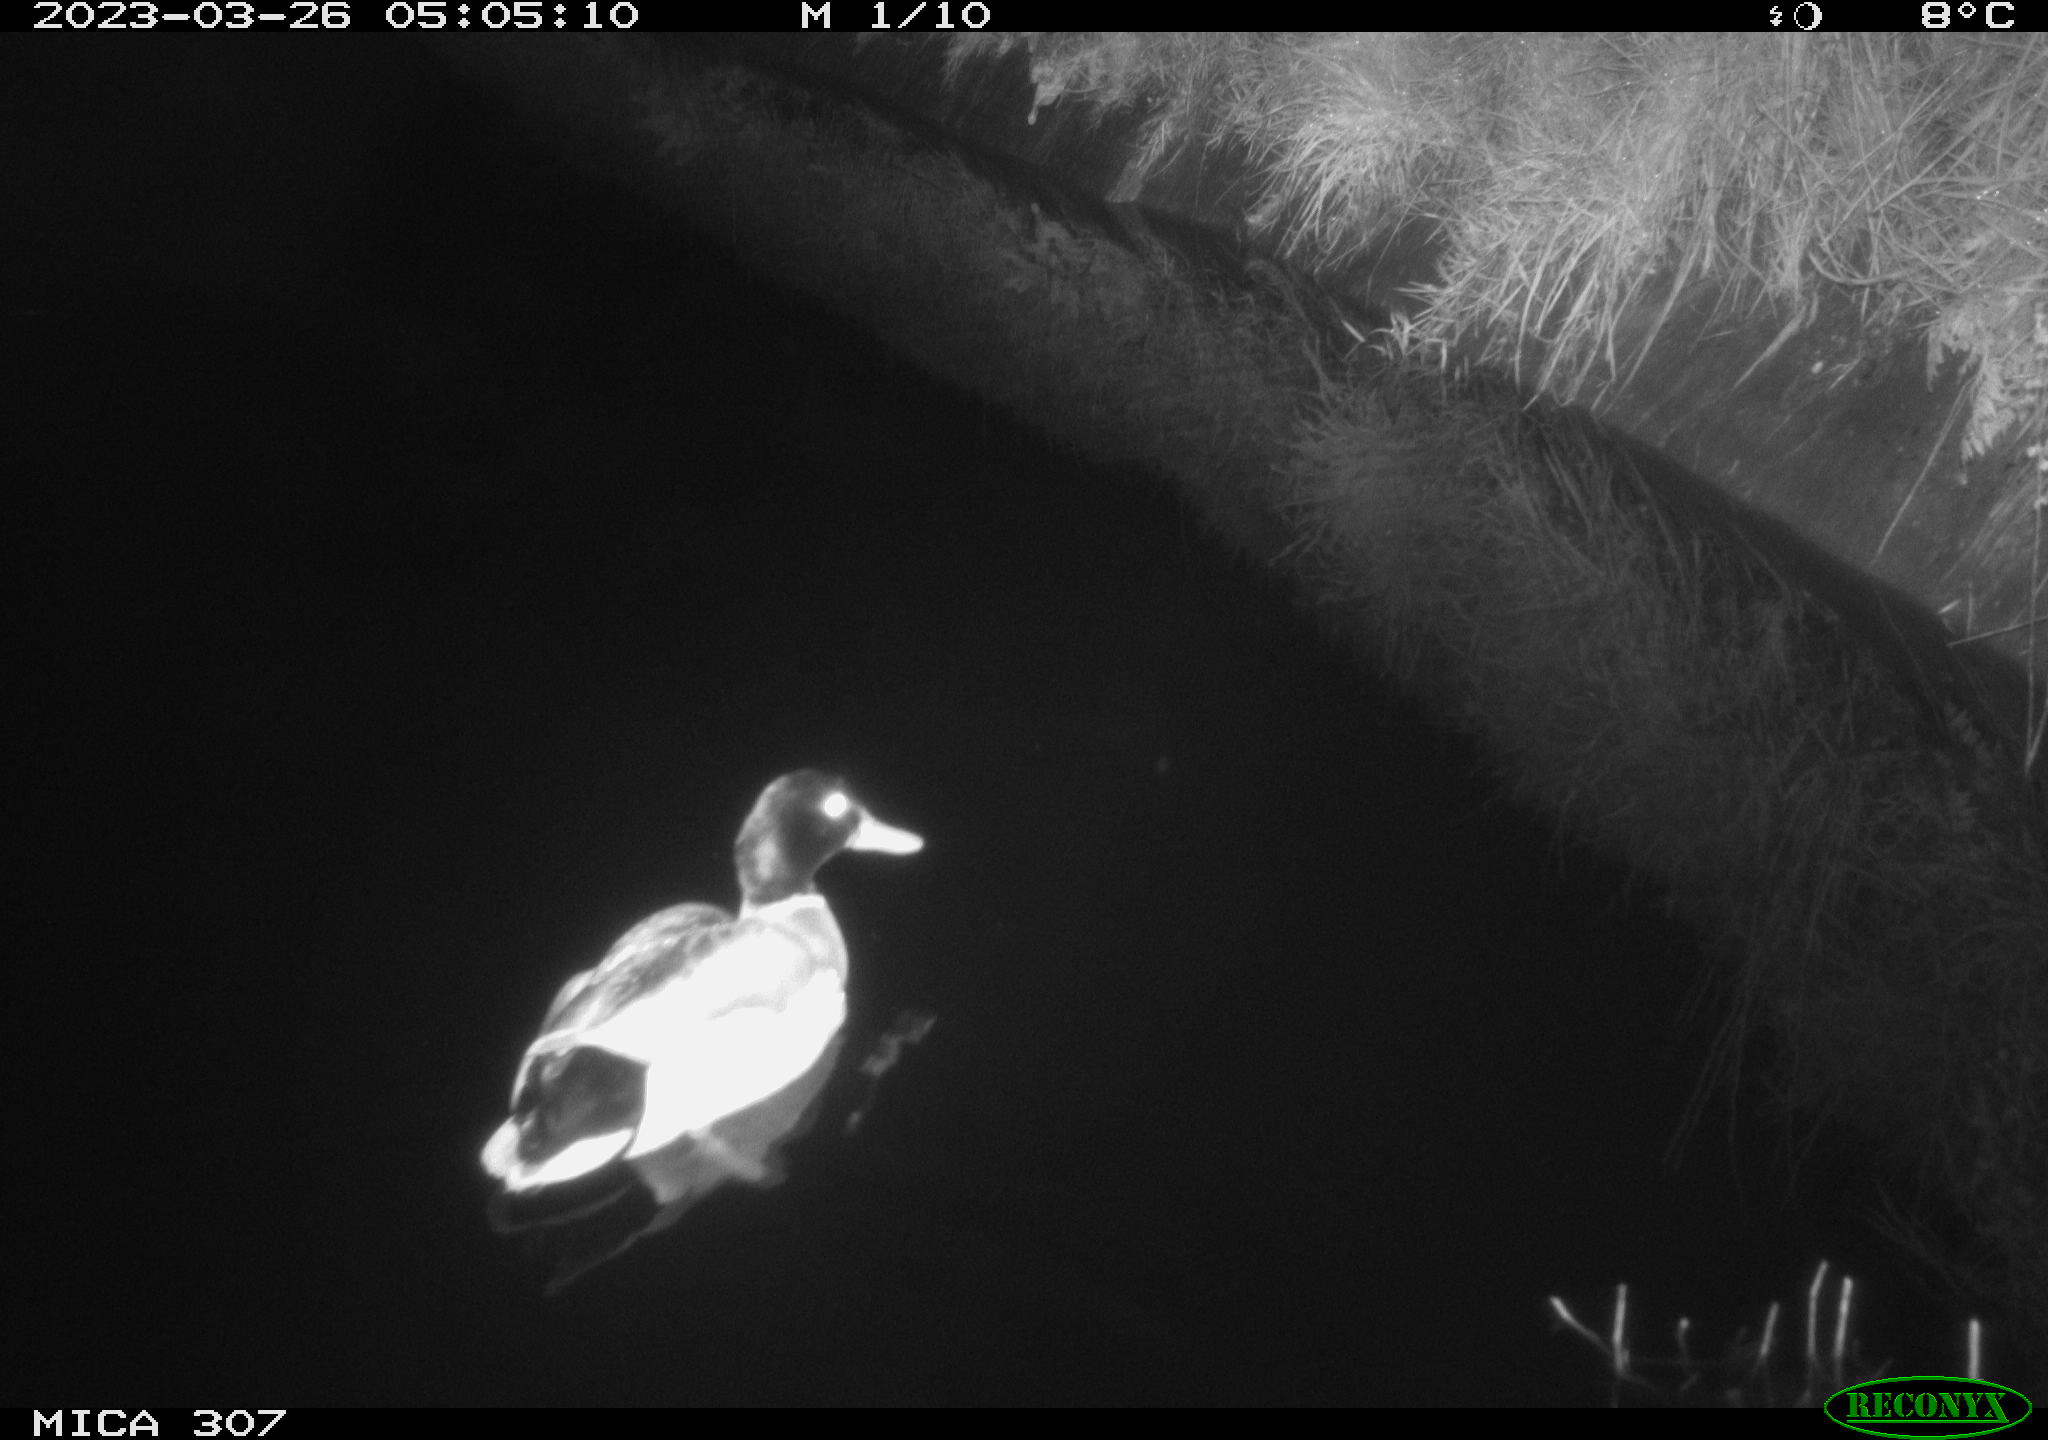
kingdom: Animalia
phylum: Chordata
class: Aves
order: Anseriformes
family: Anatidae
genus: Anas
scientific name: Anas
